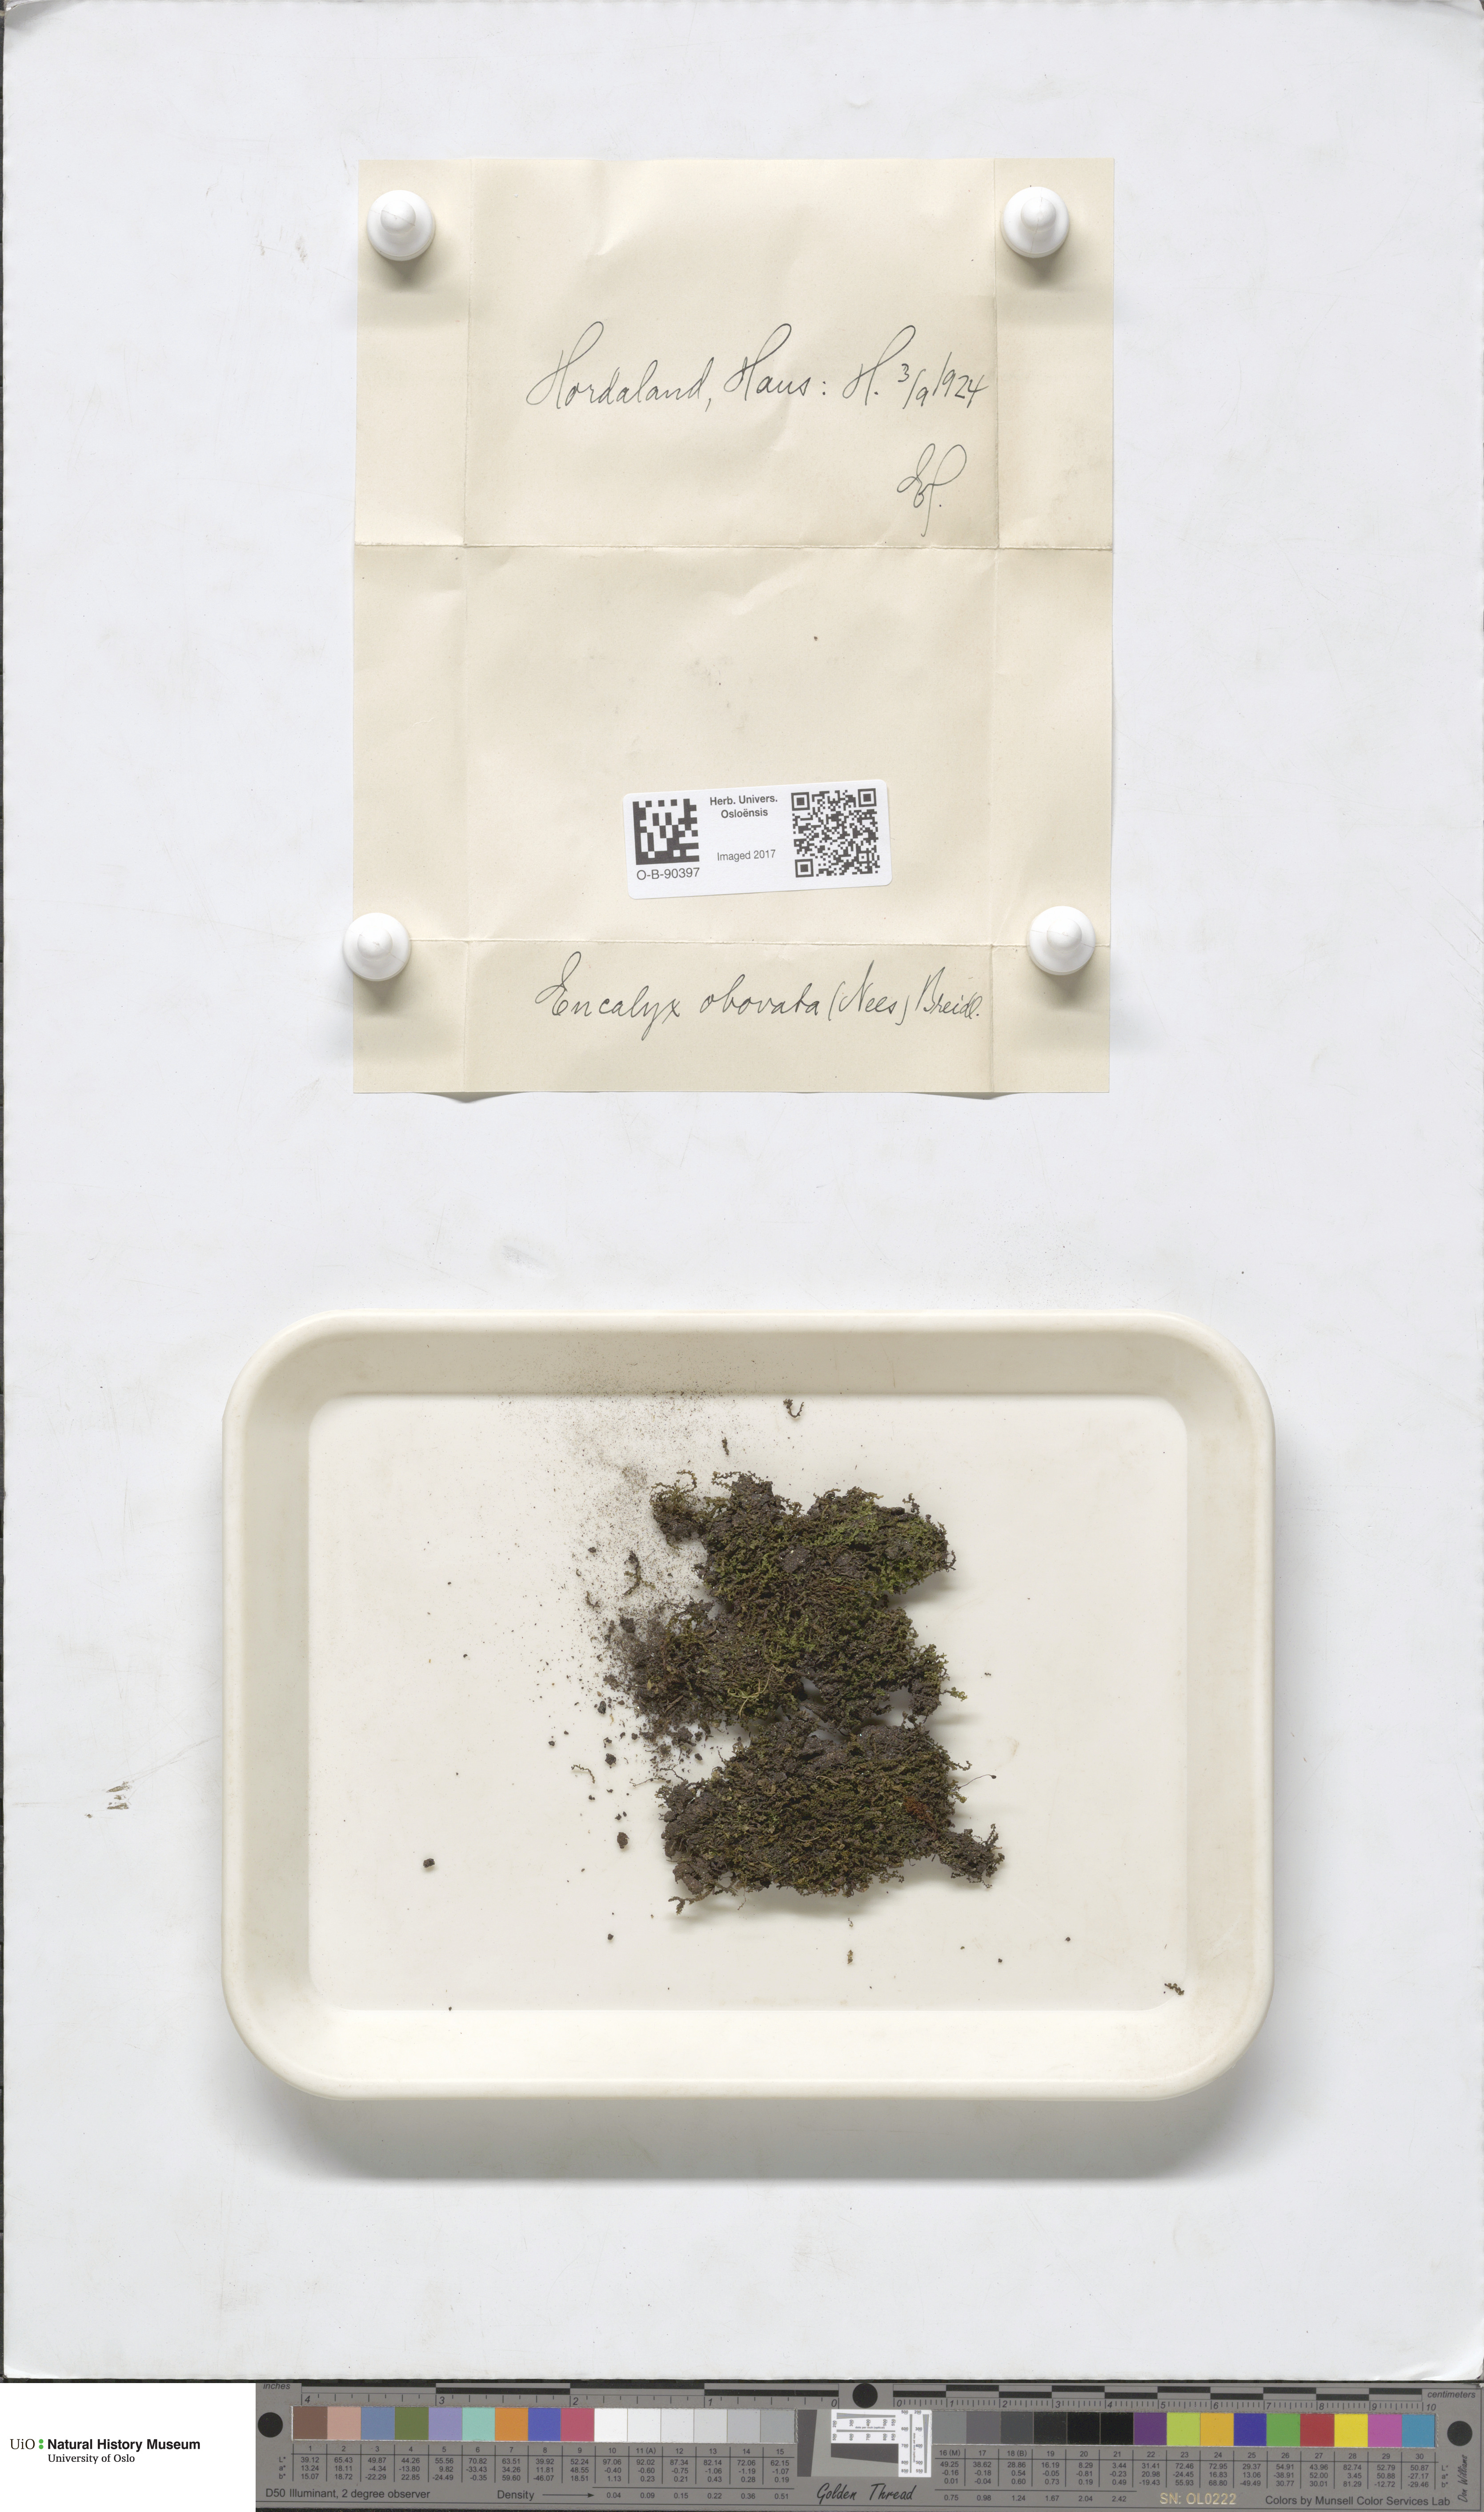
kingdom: Plantae
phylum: Marchantiophyta
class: Jungermanniopsida
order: Jungermanniales
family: Solenostomataceae
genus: Solenostoma
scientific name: Solenostoma obovatum
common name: Egg flapwort
